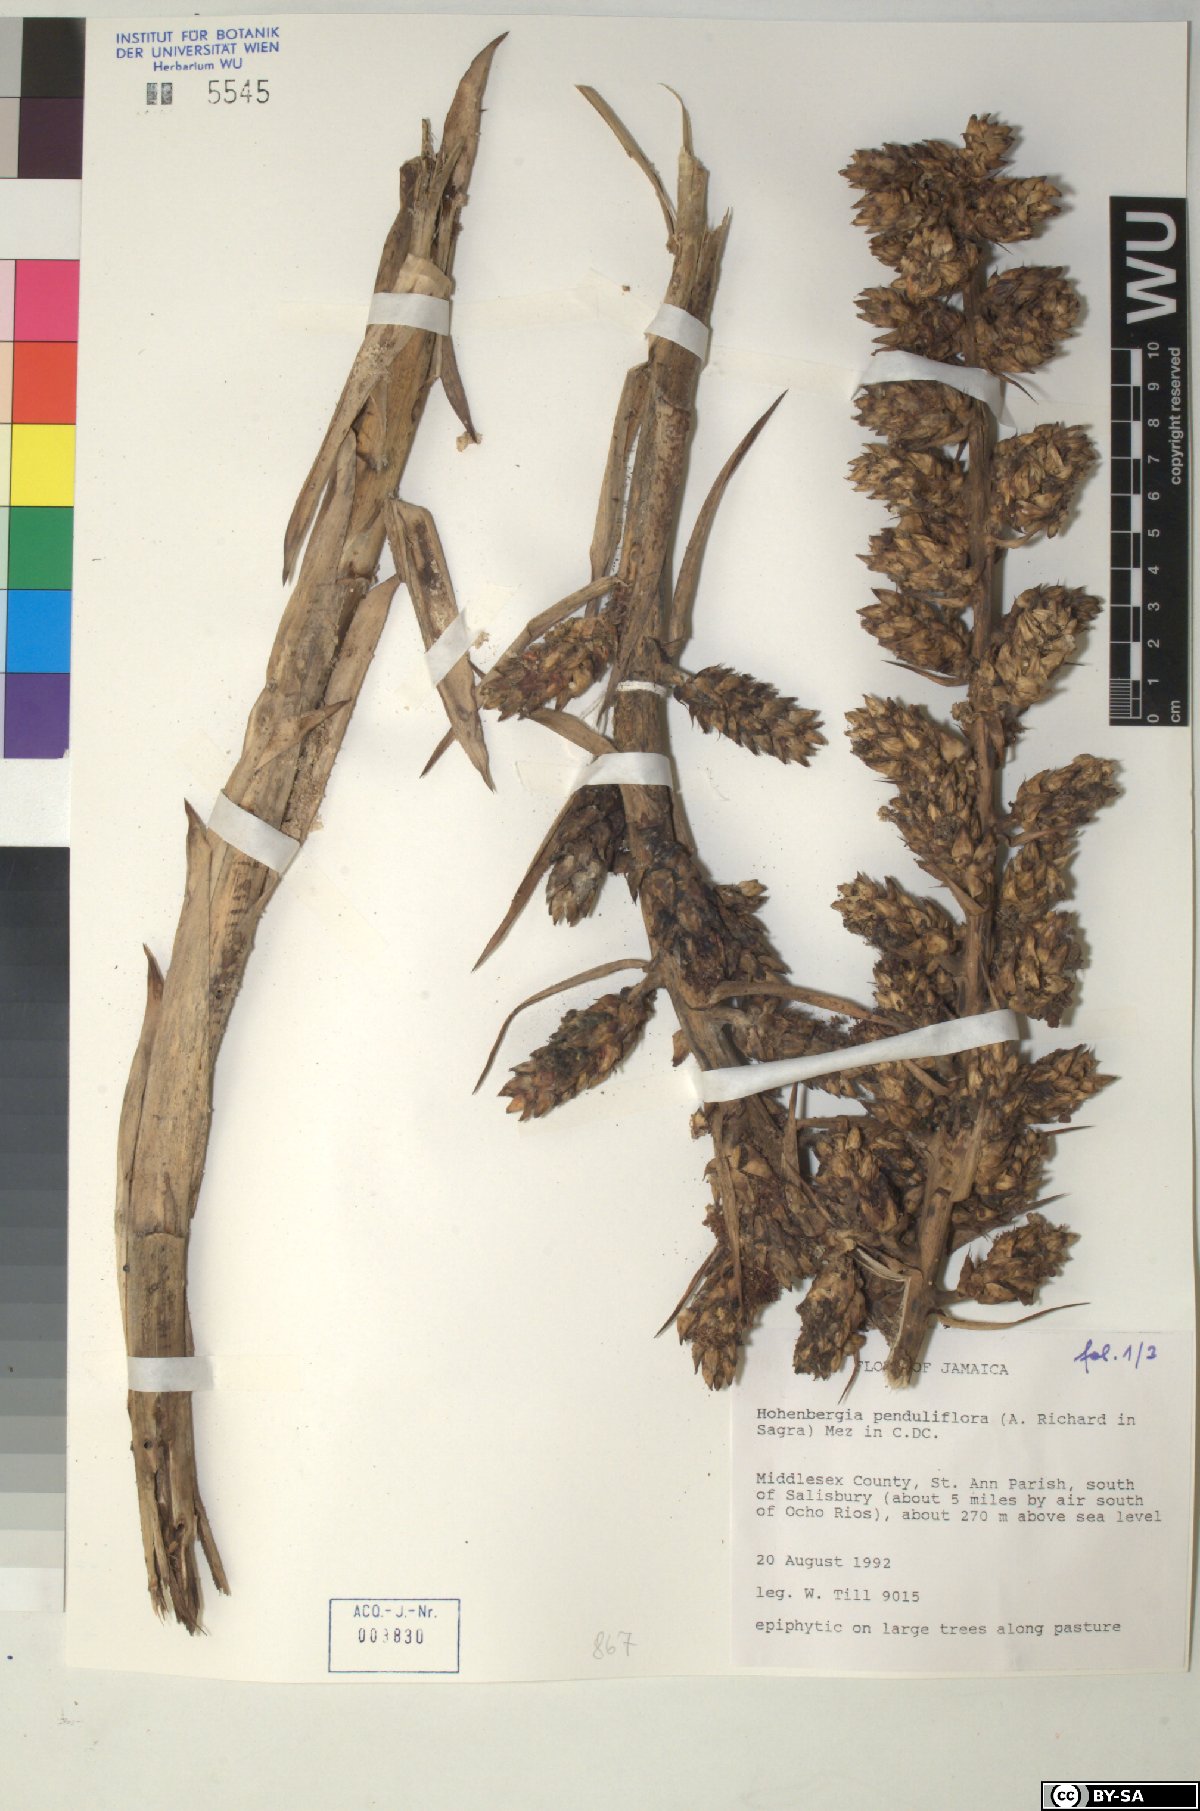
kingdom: Plantae
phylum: Tracheophyta
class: Liliopsida
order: Poales
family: Bromeliaceae
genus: Wittmackia
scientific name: Wittmackia penduliflora
